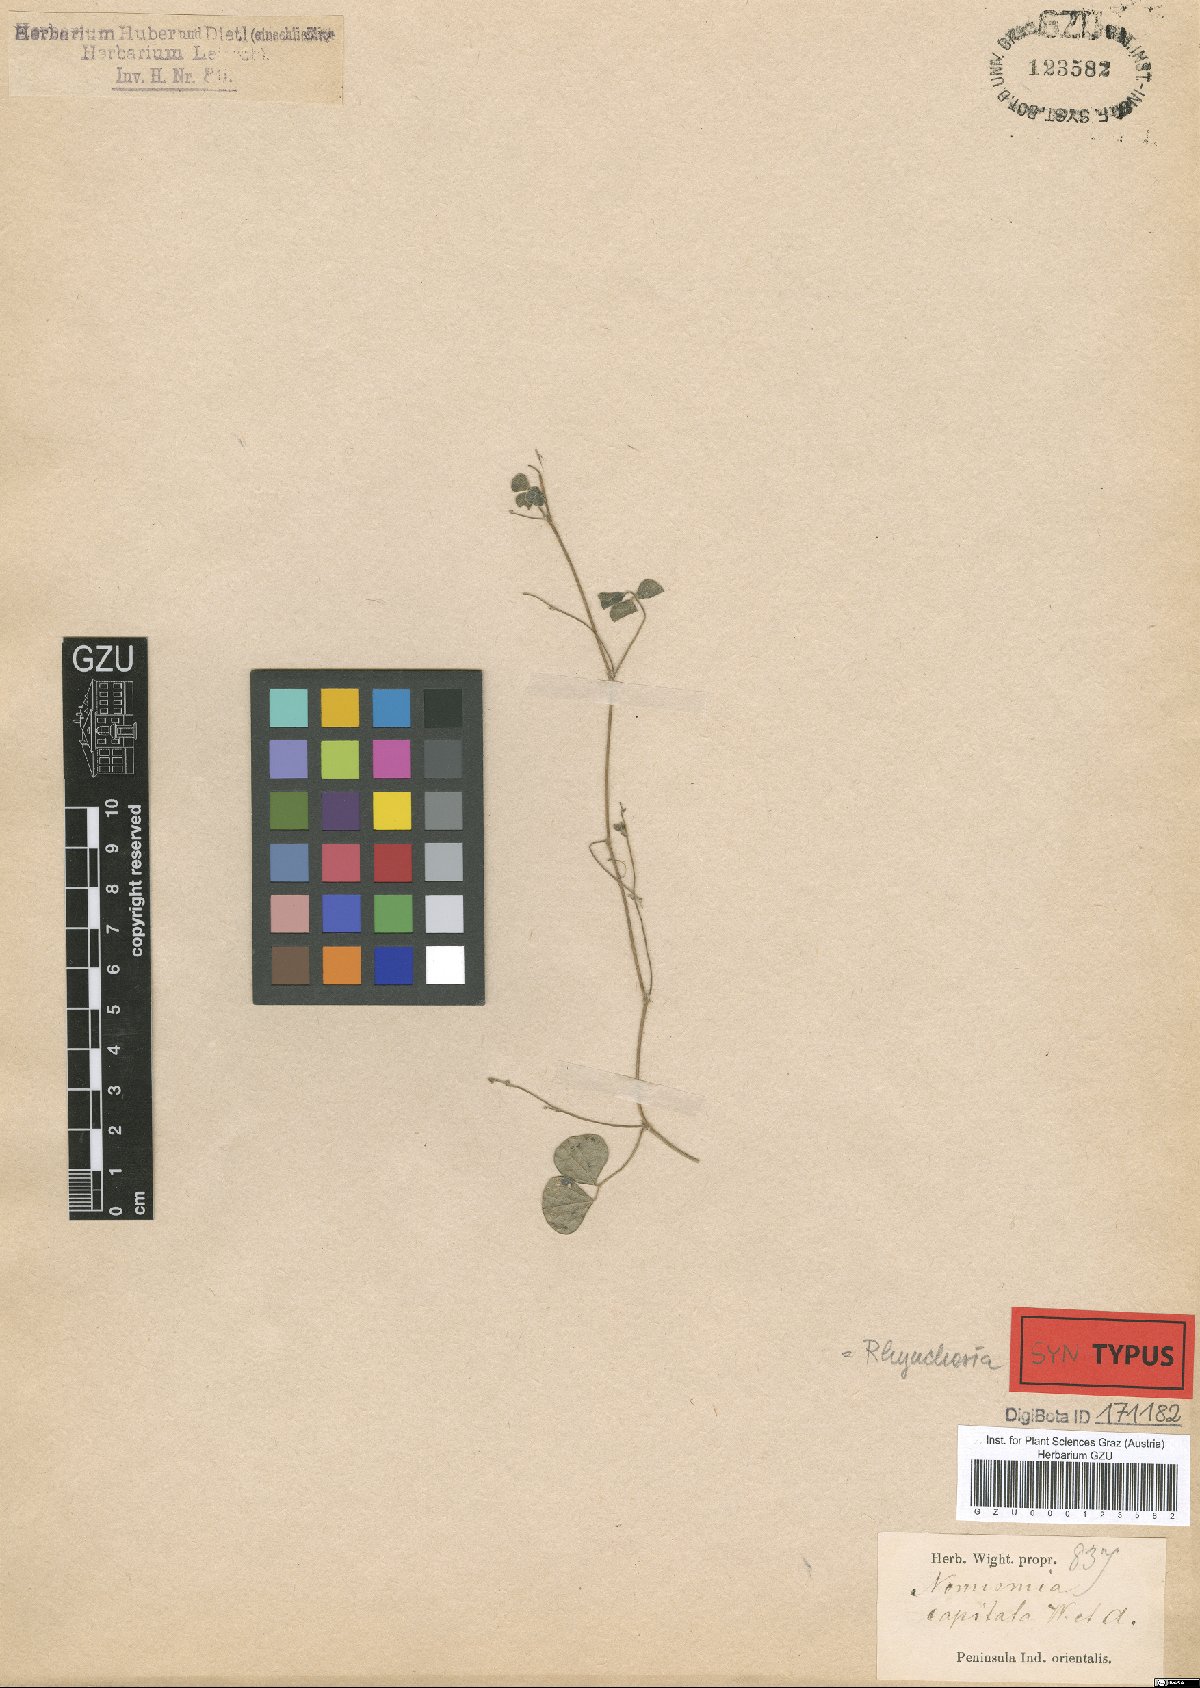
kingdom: Plantae
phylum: Tracheophyta
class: Magnoliopsida
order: Fabales
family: Fabaceae
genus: Rhynchosia
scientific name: Rhynchosia capitata
